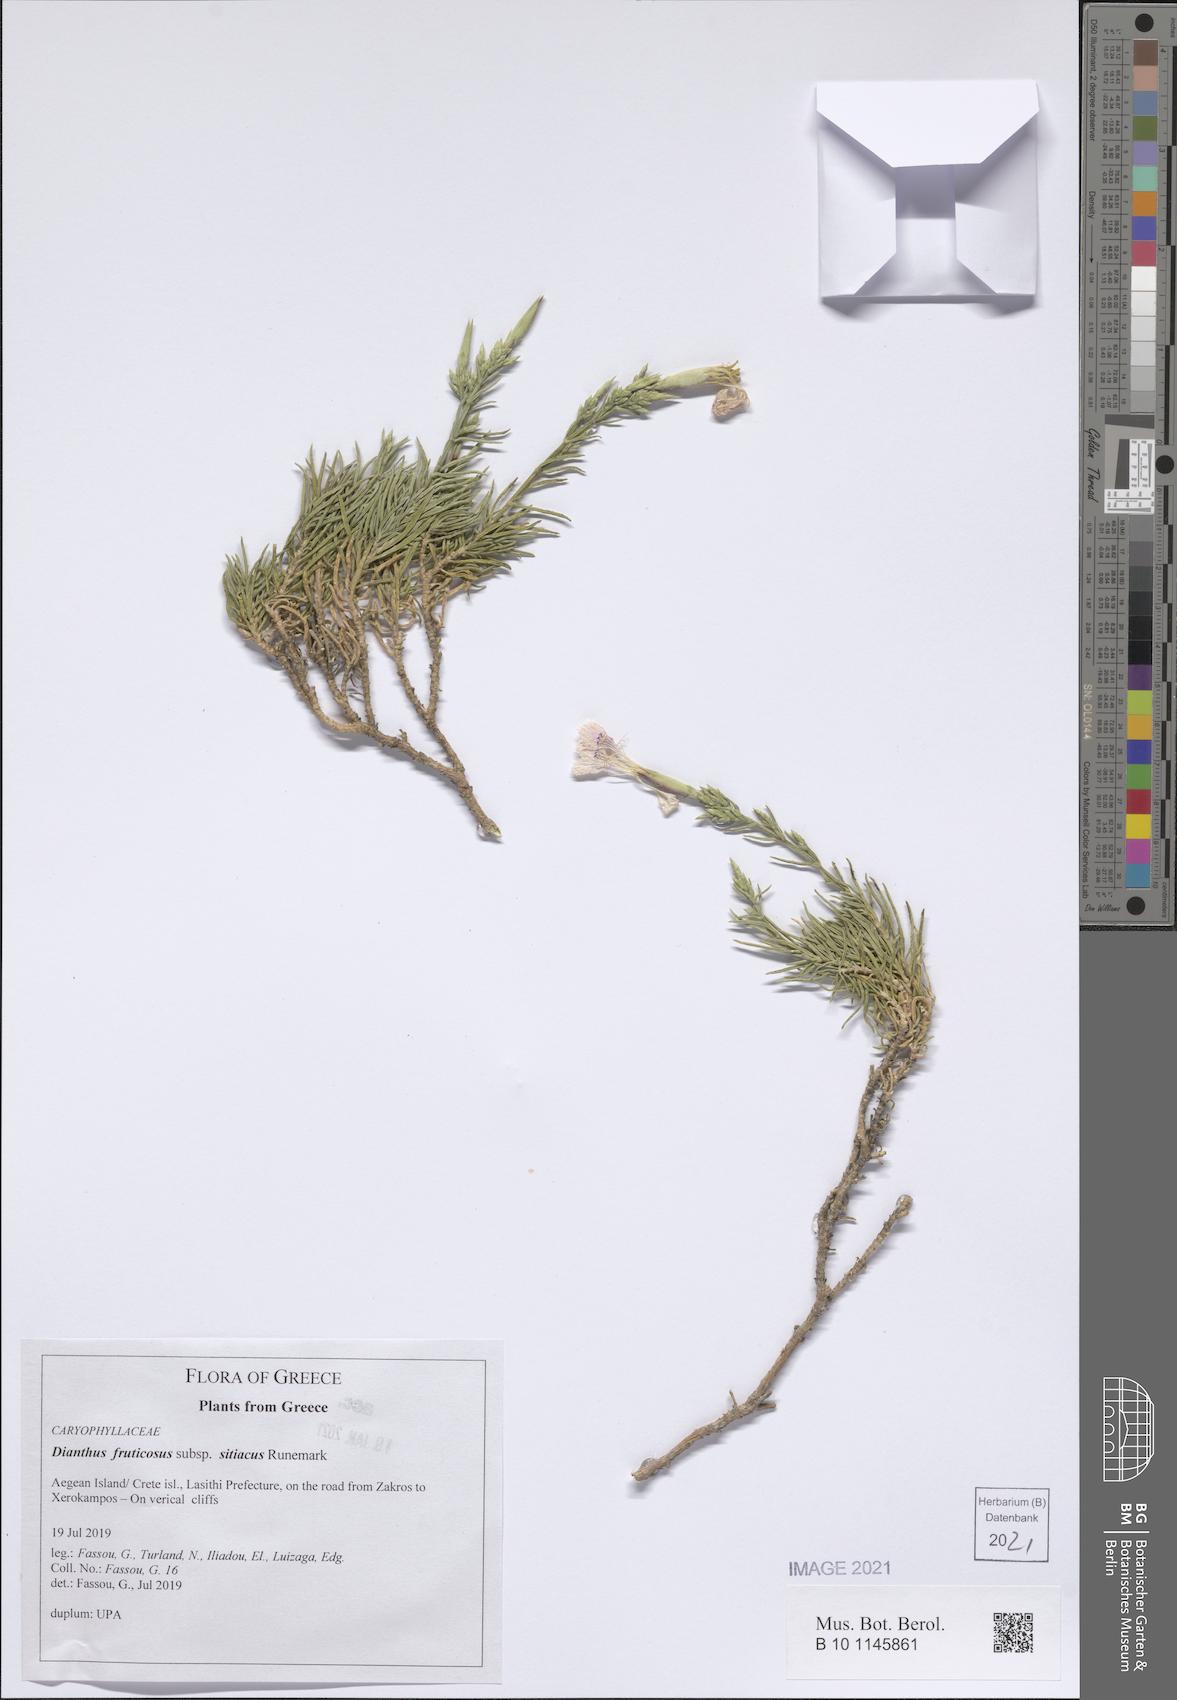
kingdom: Plantae
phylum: Tracheophyta
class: Magnoliopsida
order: Caryophyllales
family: Caryophyllaceae
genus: Dianthus
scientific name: Dianthus fruticosus
